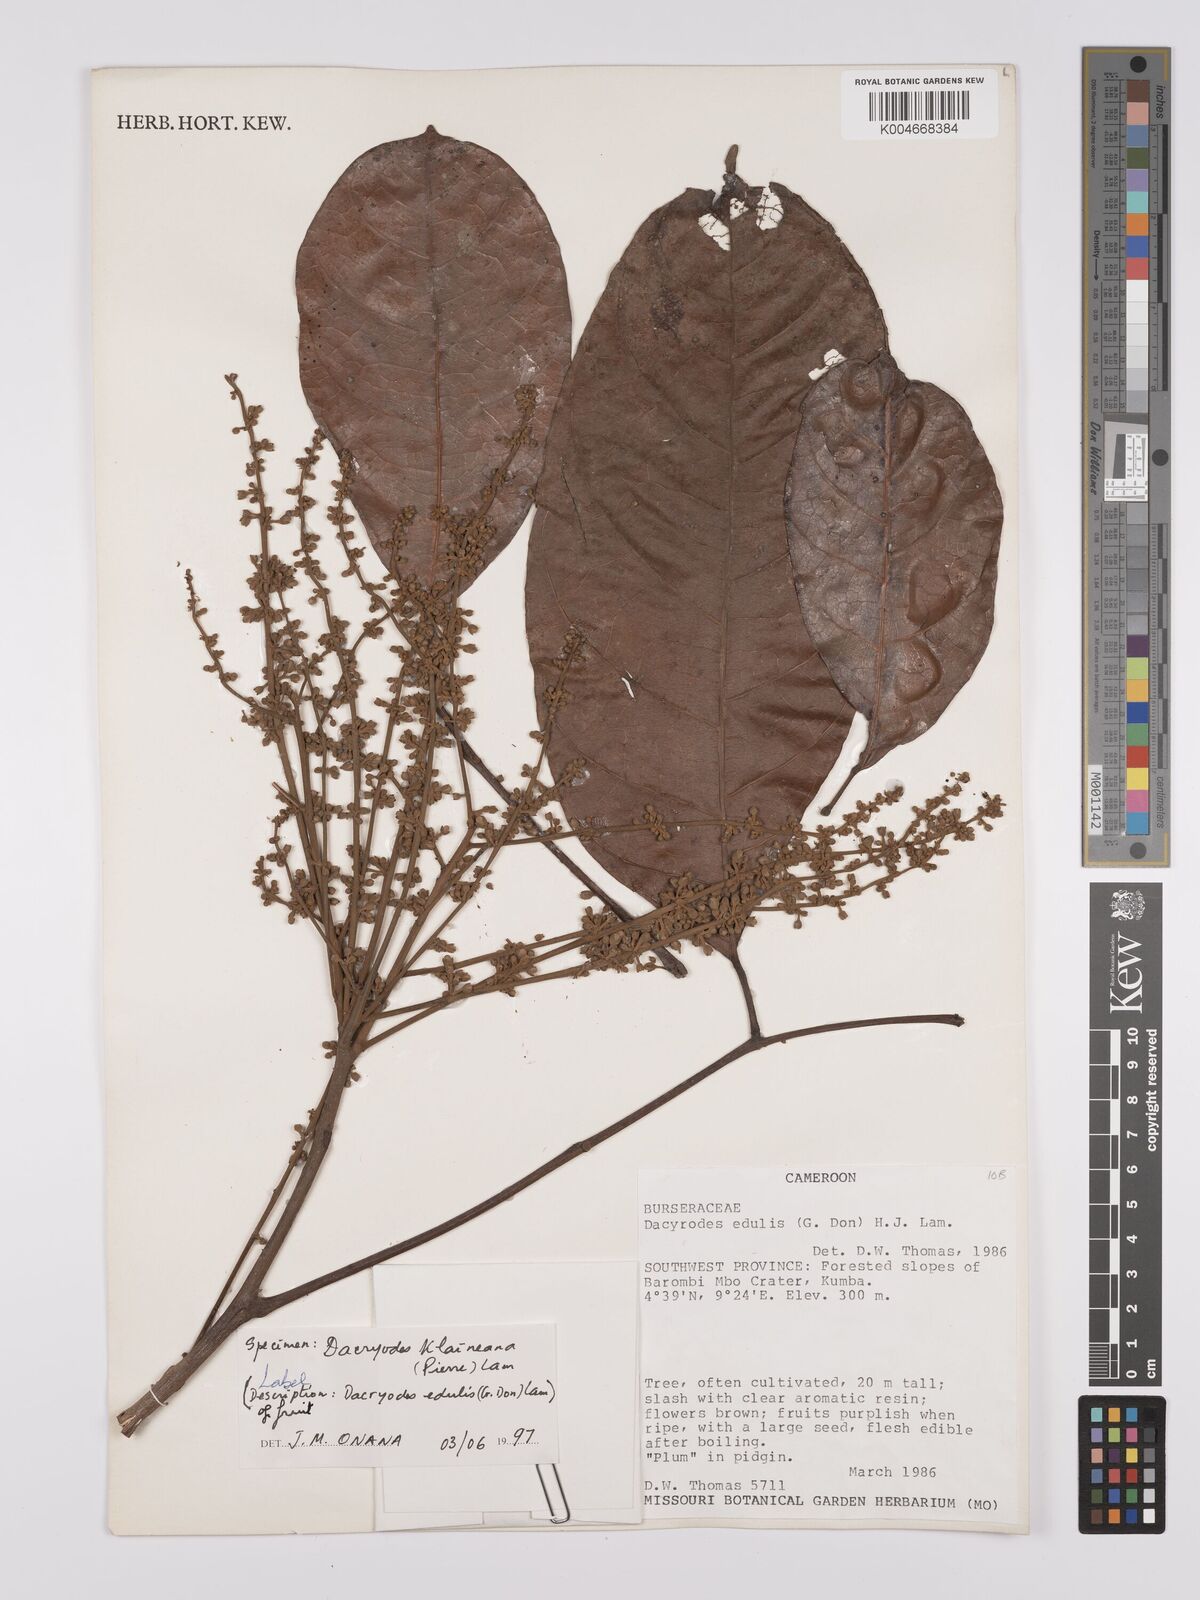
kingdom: Plantae
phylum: Tracheophyta
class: Magnoliopsida
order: Sapindales
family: Burseraceae
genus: Pachylobus
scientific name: Pachylobus klaineana
